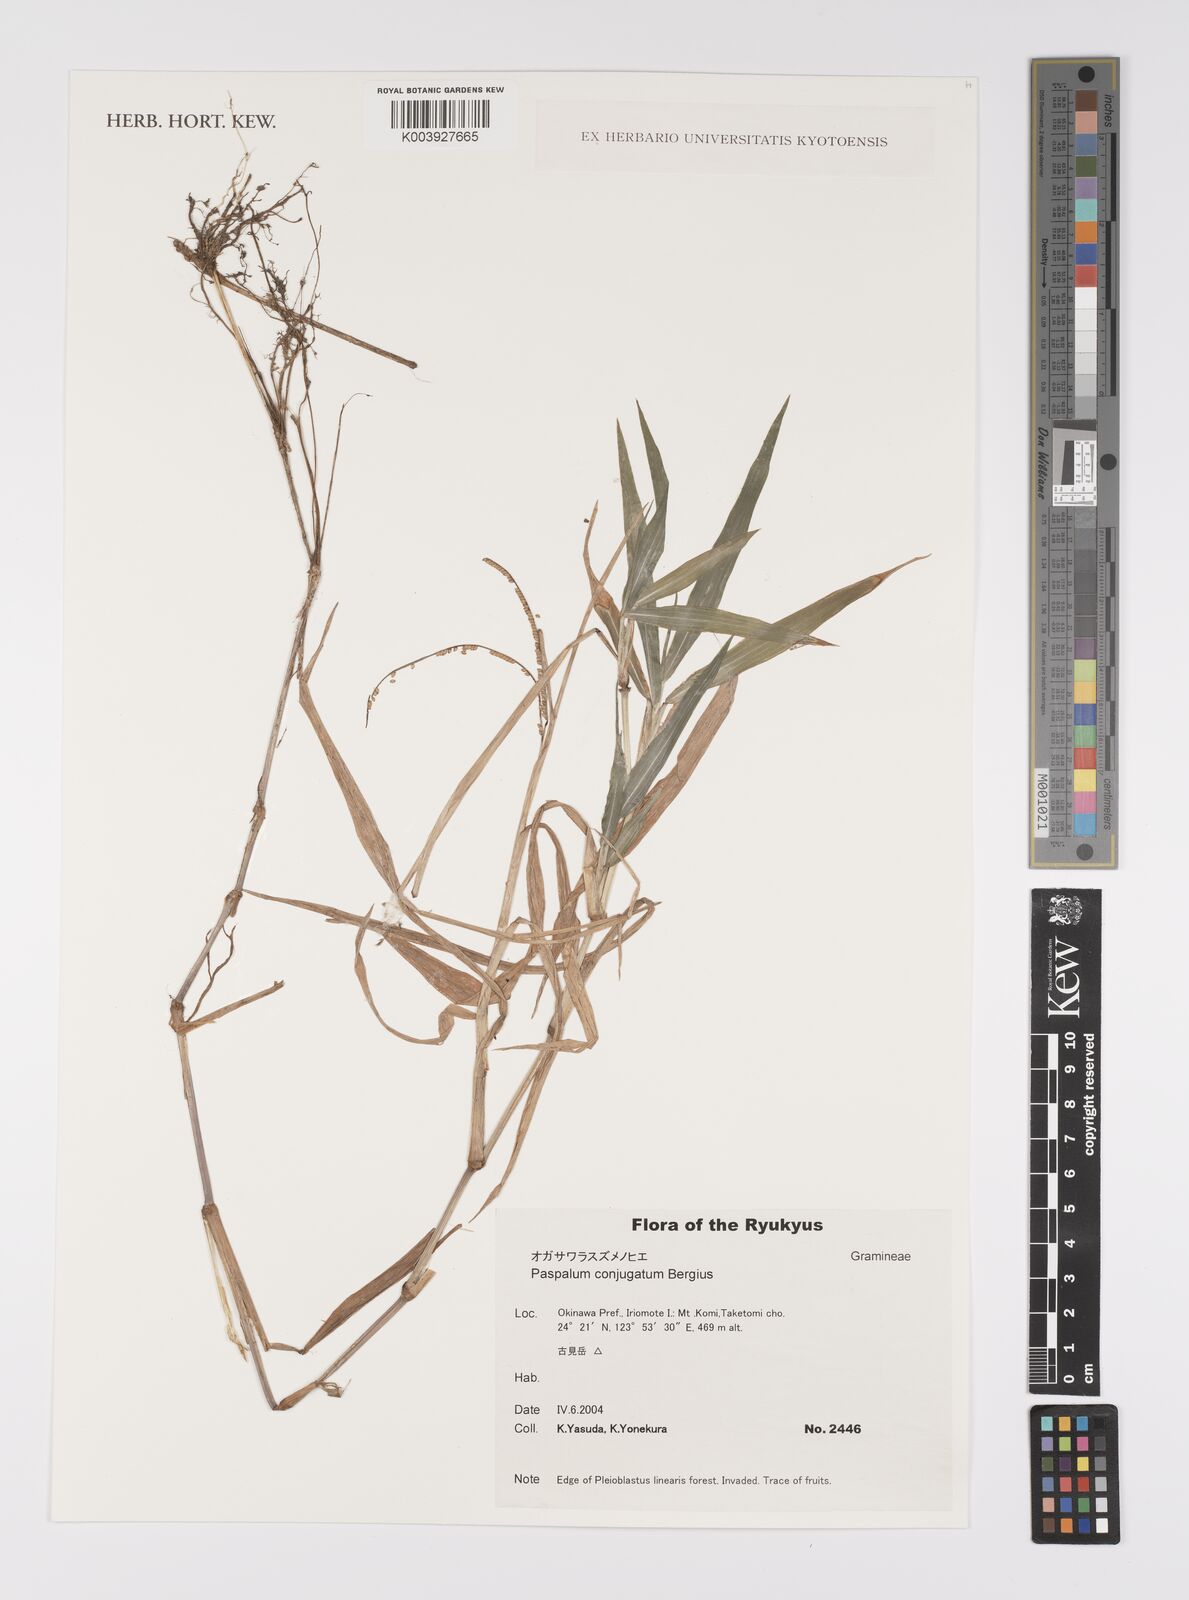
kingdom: Plantae
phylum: Tracheophyta
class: Liliopsida
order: Poales
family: Poaceae
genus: Paspalum
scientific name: Paspalum conjugatum
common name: Hilograss
